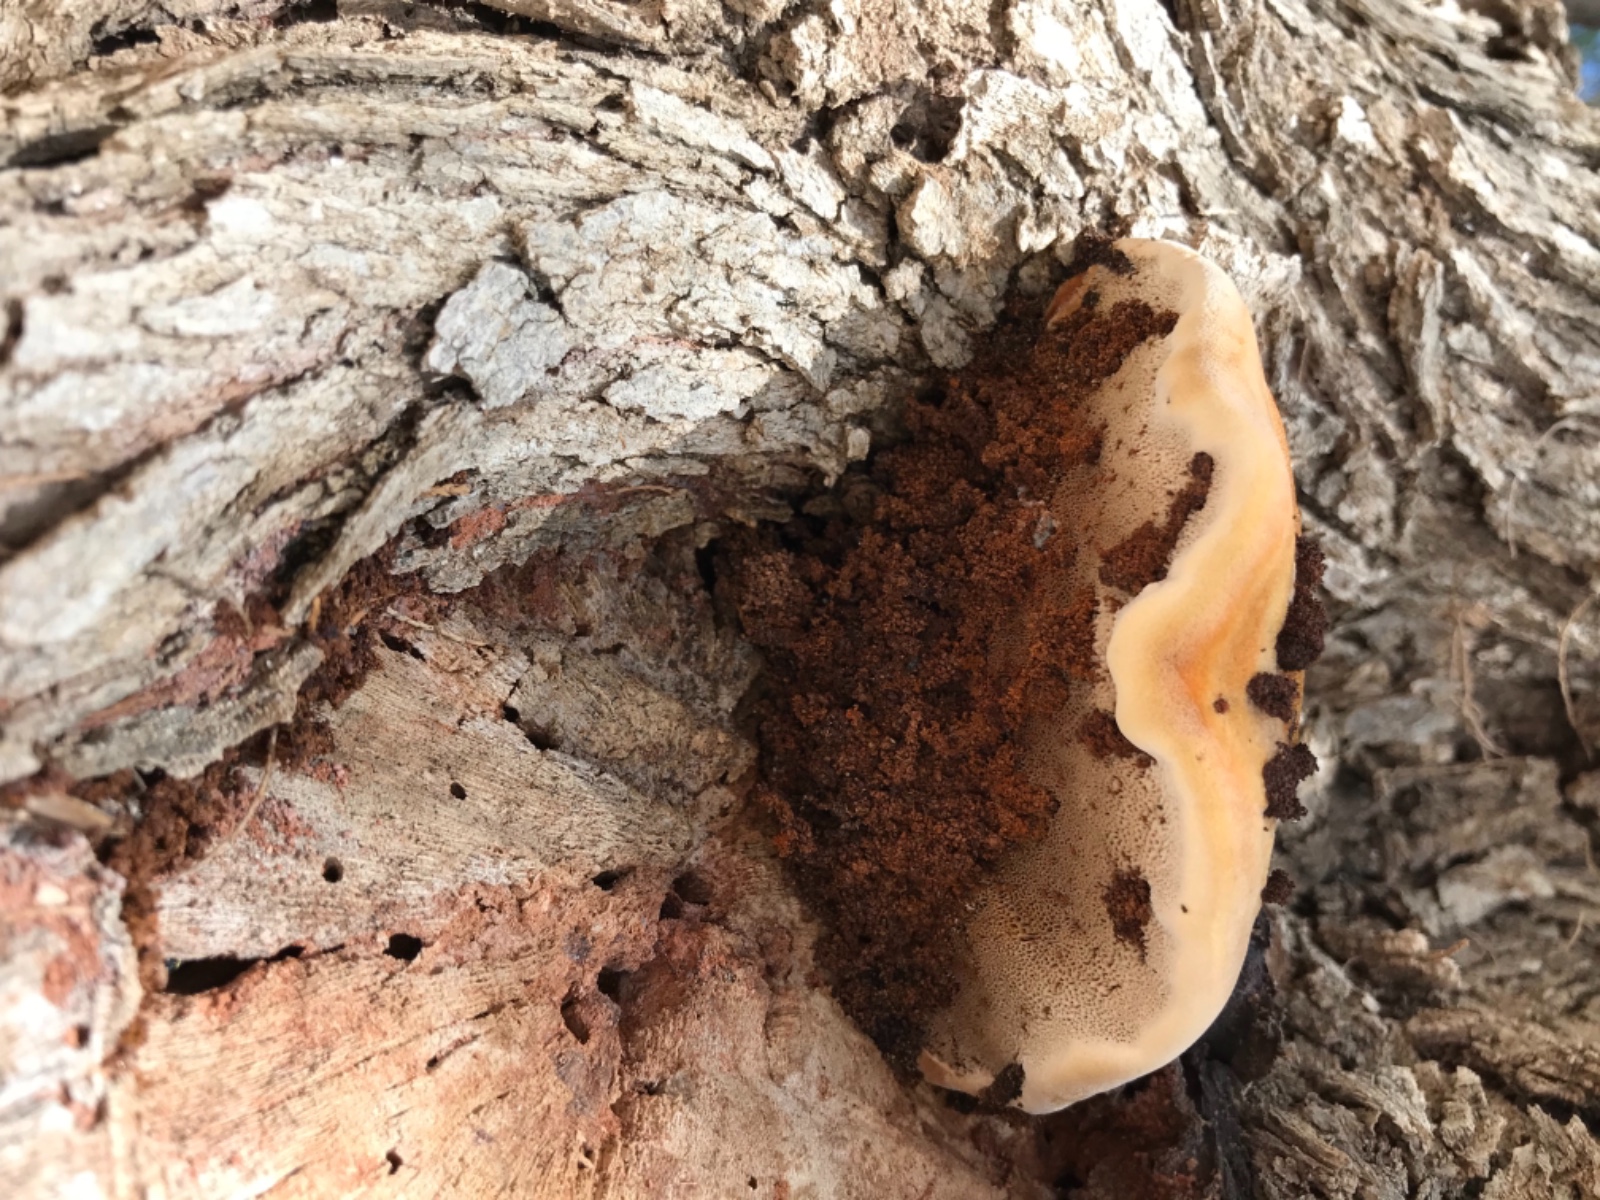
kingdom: Fungi
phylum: Basidiomycota
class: Agaricomycetes
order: Hymenochaetales
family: Hymenochaetaceae
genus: Inocutis
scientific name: Inocutis tamaricis
